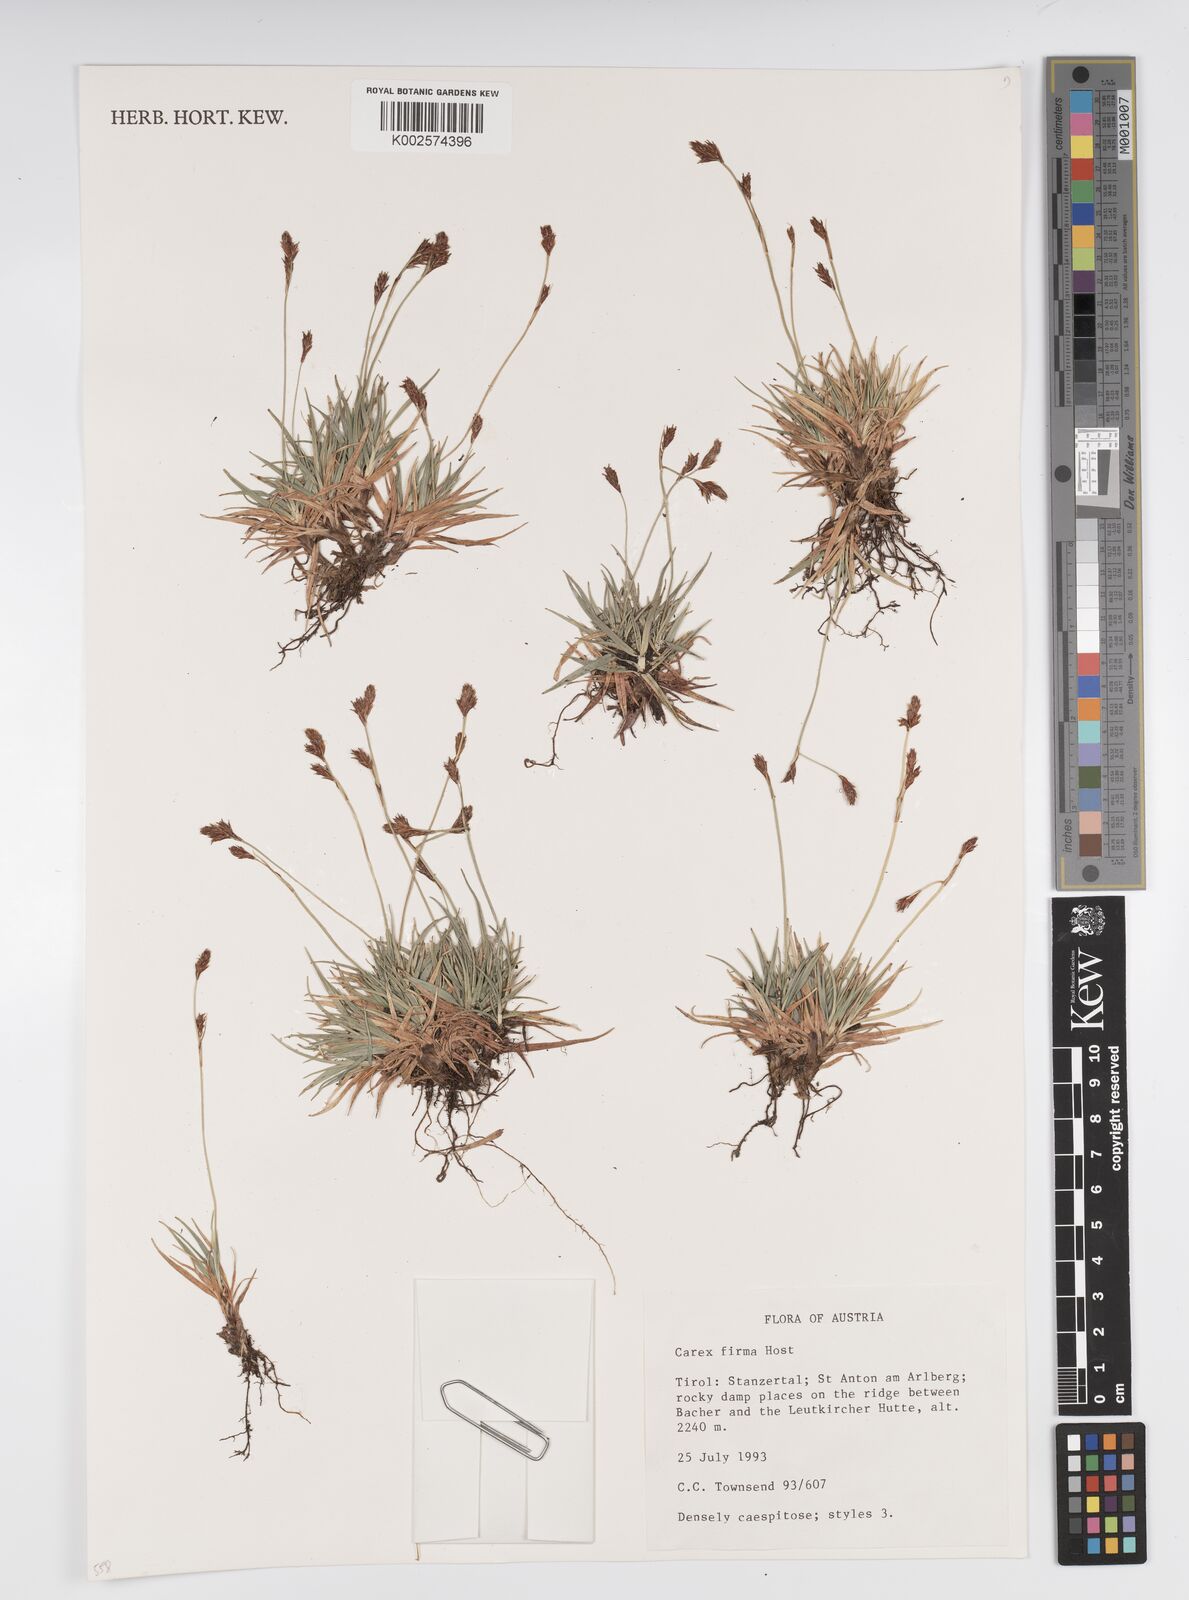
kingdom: Plantae
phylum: Tracheophyta
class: Liliopsida
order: Poales
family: Cyperaceae
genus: Carex
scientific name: Carex firma
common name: Dwarf pillow sedge
